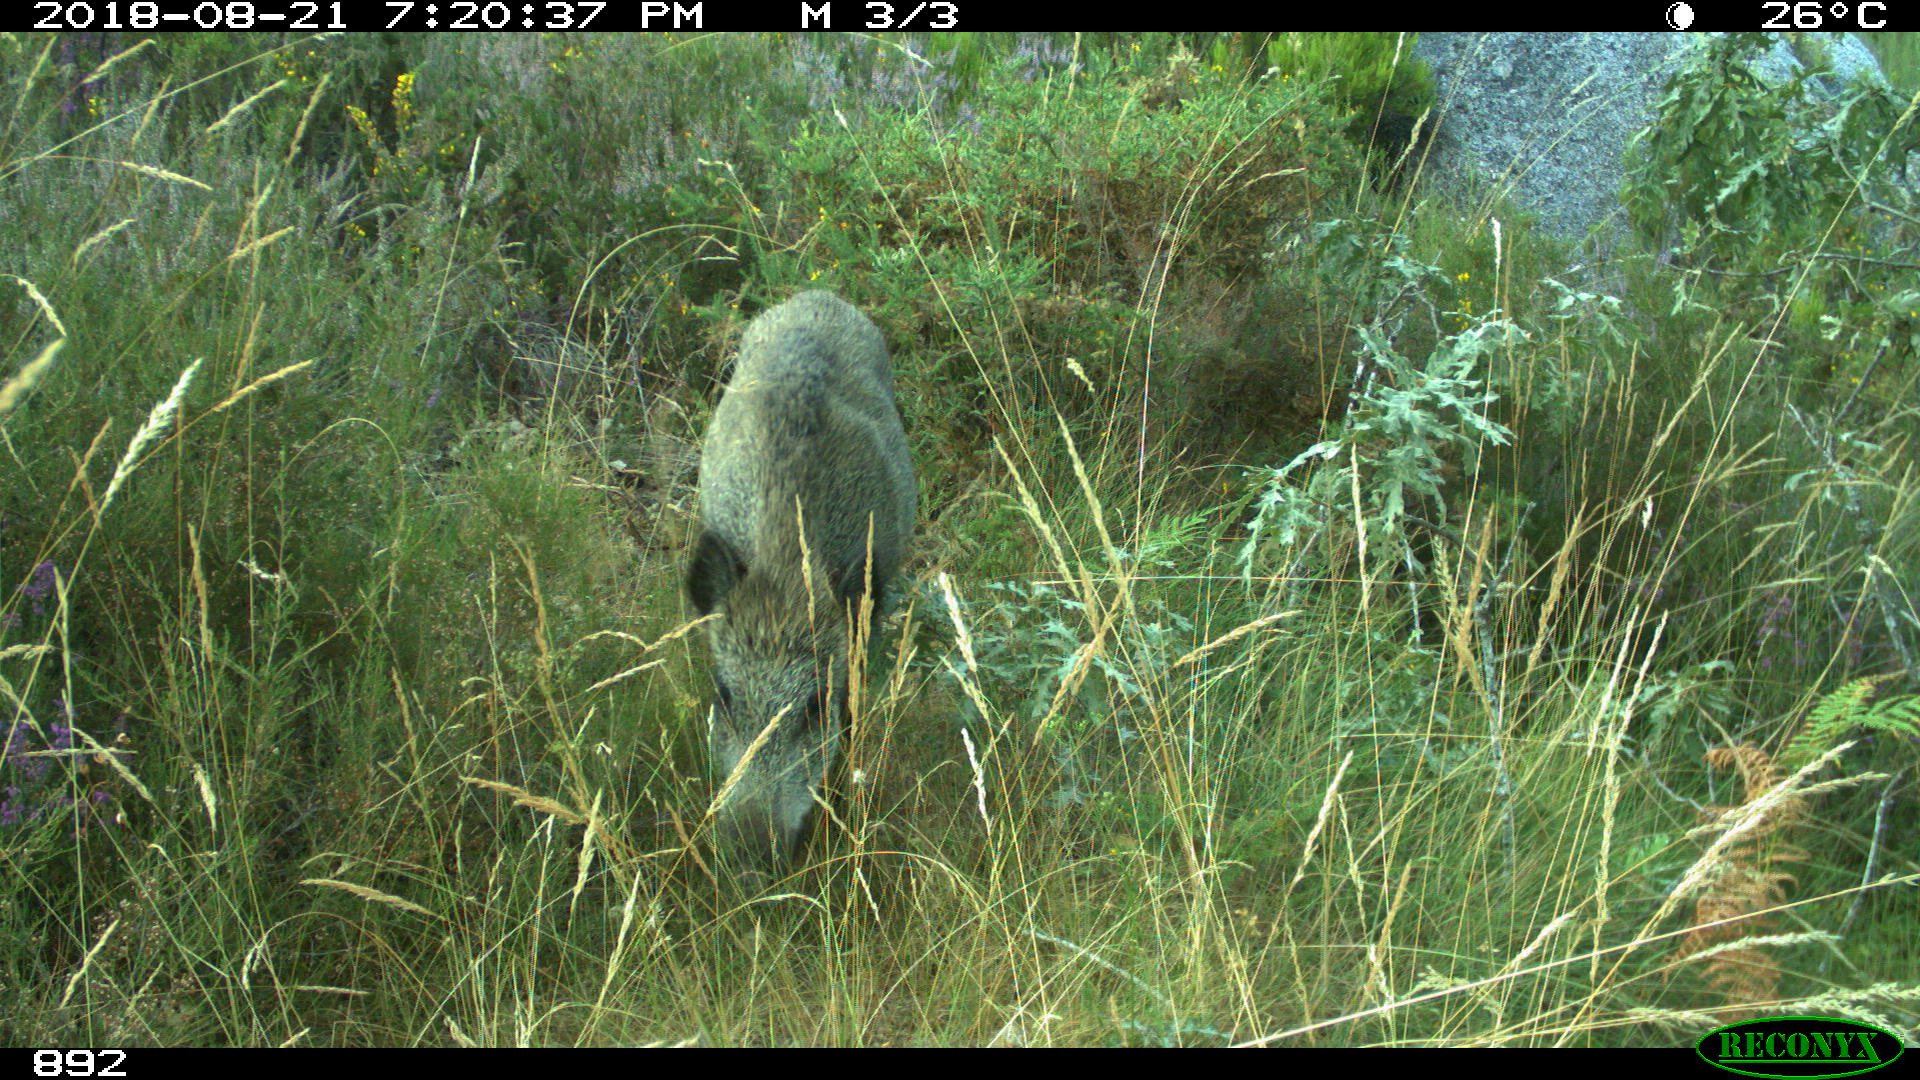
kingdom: Animalia
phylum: Chordata
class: Mammalia
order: Artiodactyla
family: Suidae
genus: Sus
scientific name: Sus scrofa
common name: Wild boar
